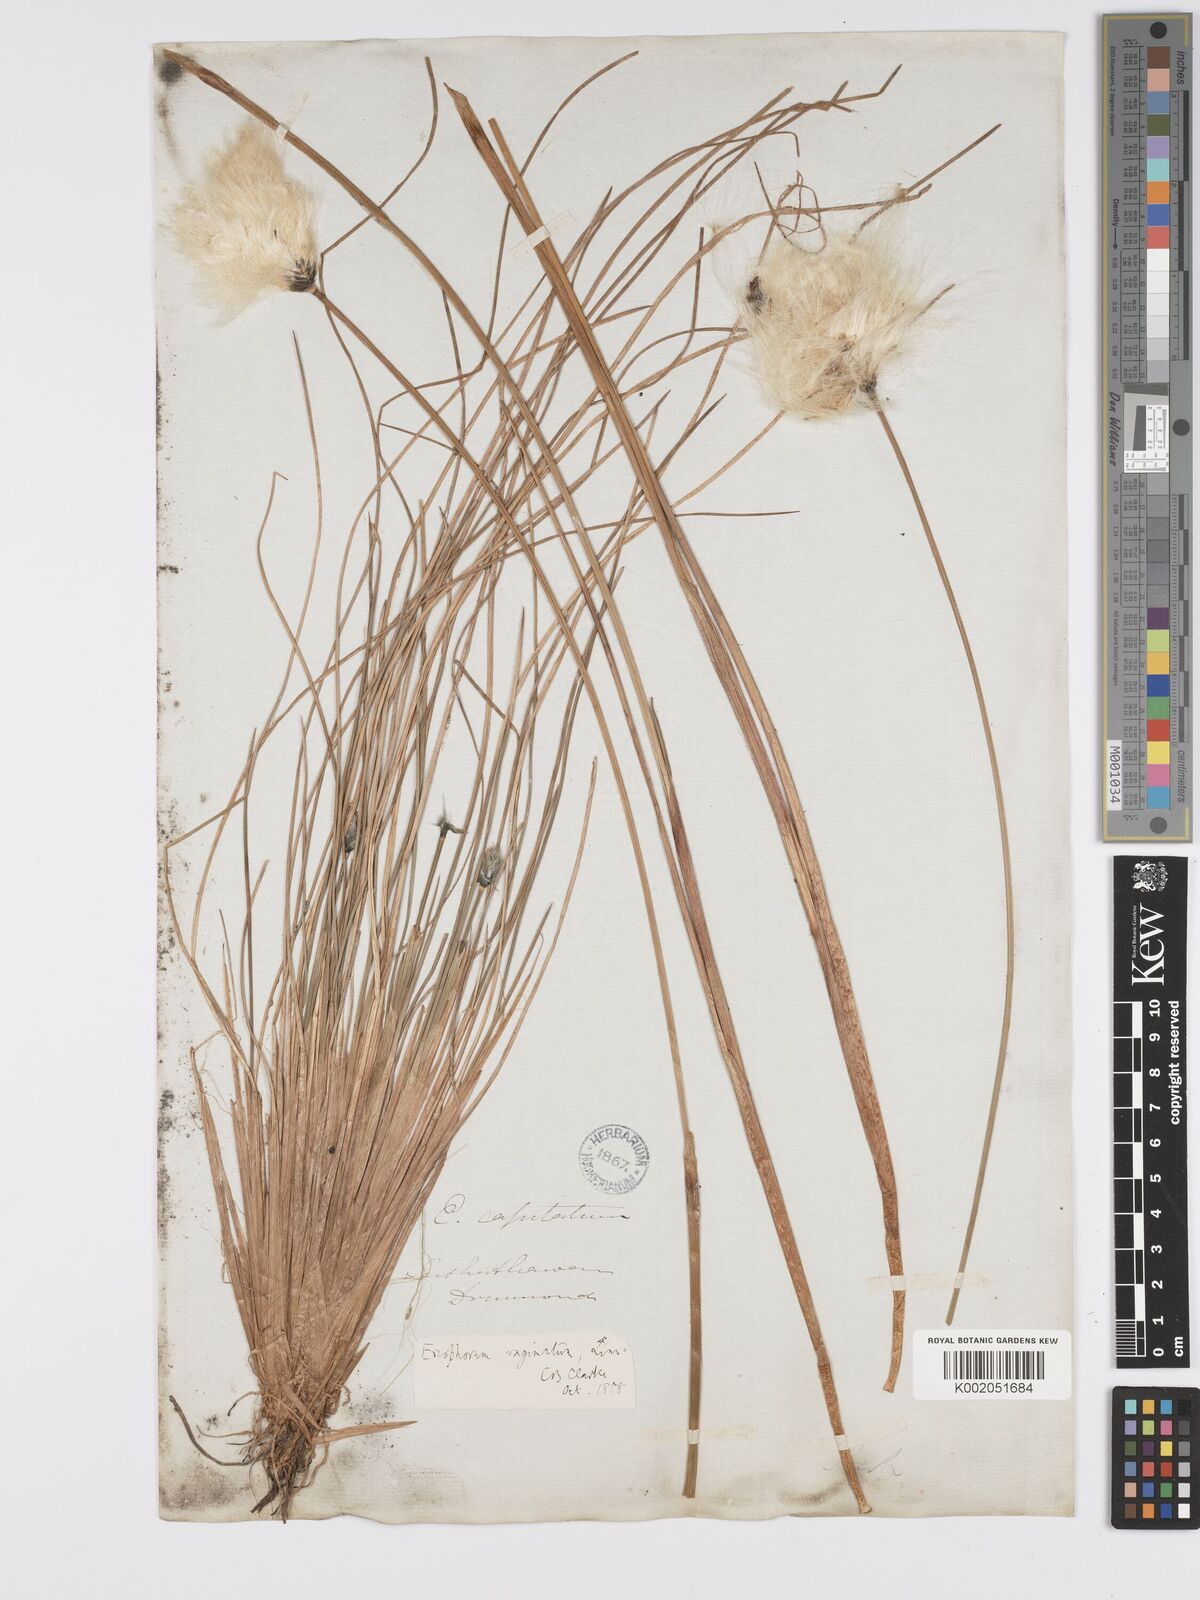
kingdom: Plantae
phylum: Tracheophyta
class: Liliopsida
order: Poales
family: Cyperaceae
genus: Eriophorum
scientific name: Eriophorum vaginatum
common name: Hare's-tail cottongrass
